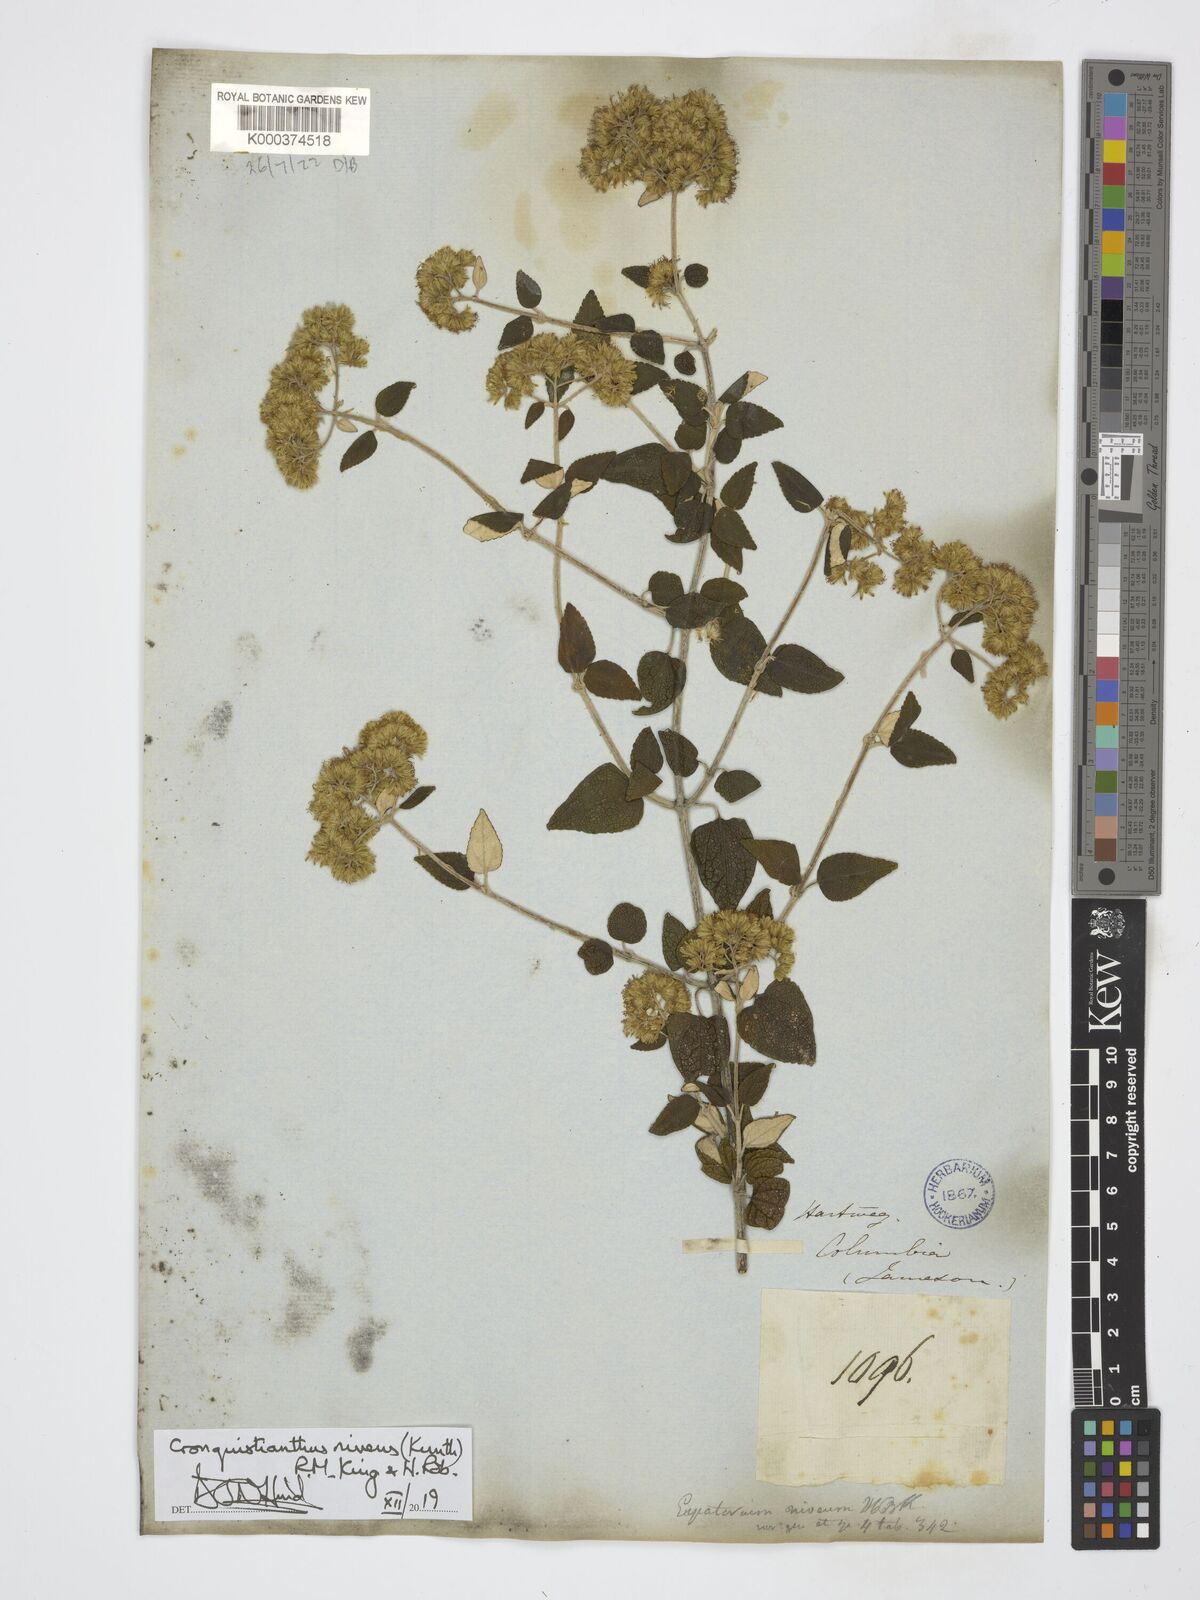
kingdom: Plantae
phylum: Tracheophyta
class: Magnoliopsida
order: Asterales
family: Asteraceae
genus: Cronquistianthus
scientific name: Cronquistianthus niveus
